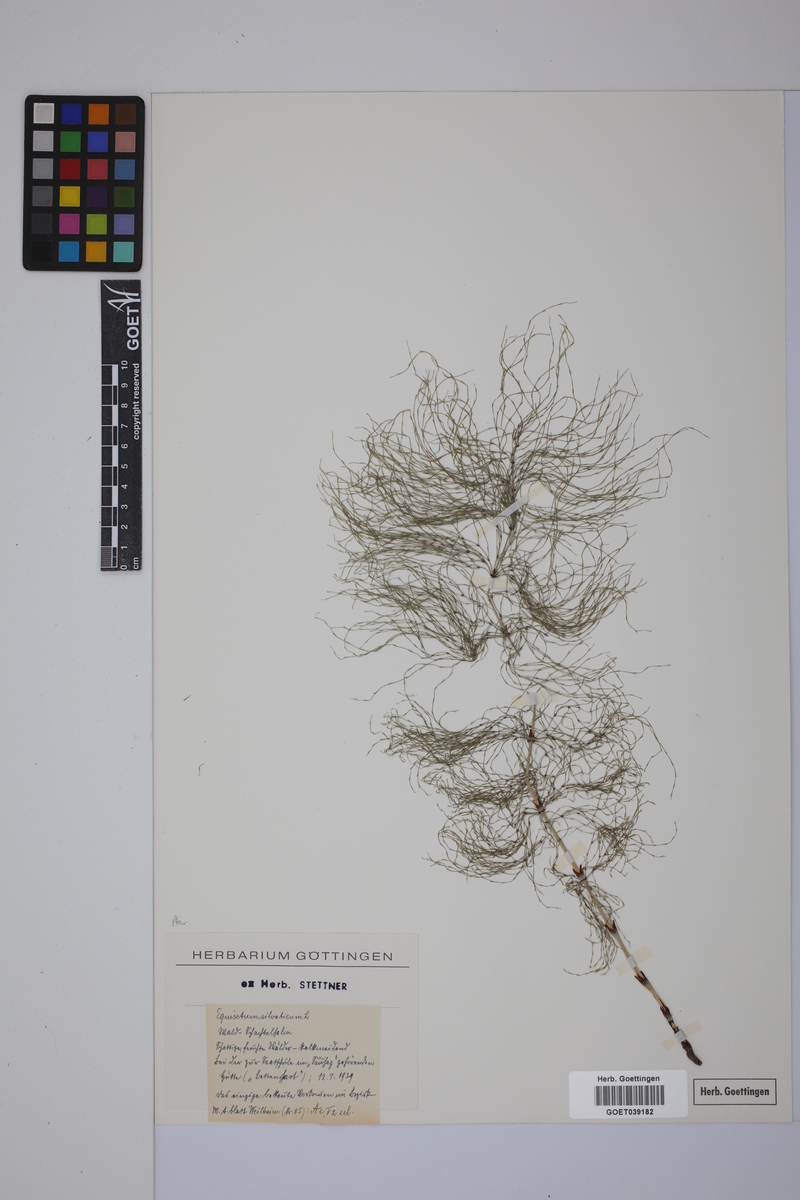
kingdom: Plantae
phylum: Tracheophyta
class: Polypodiopsida
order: Equisetales
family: Equisetaceae
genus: Equisetum
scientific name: Equisetum sylvaticum
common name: Wood horsetail
